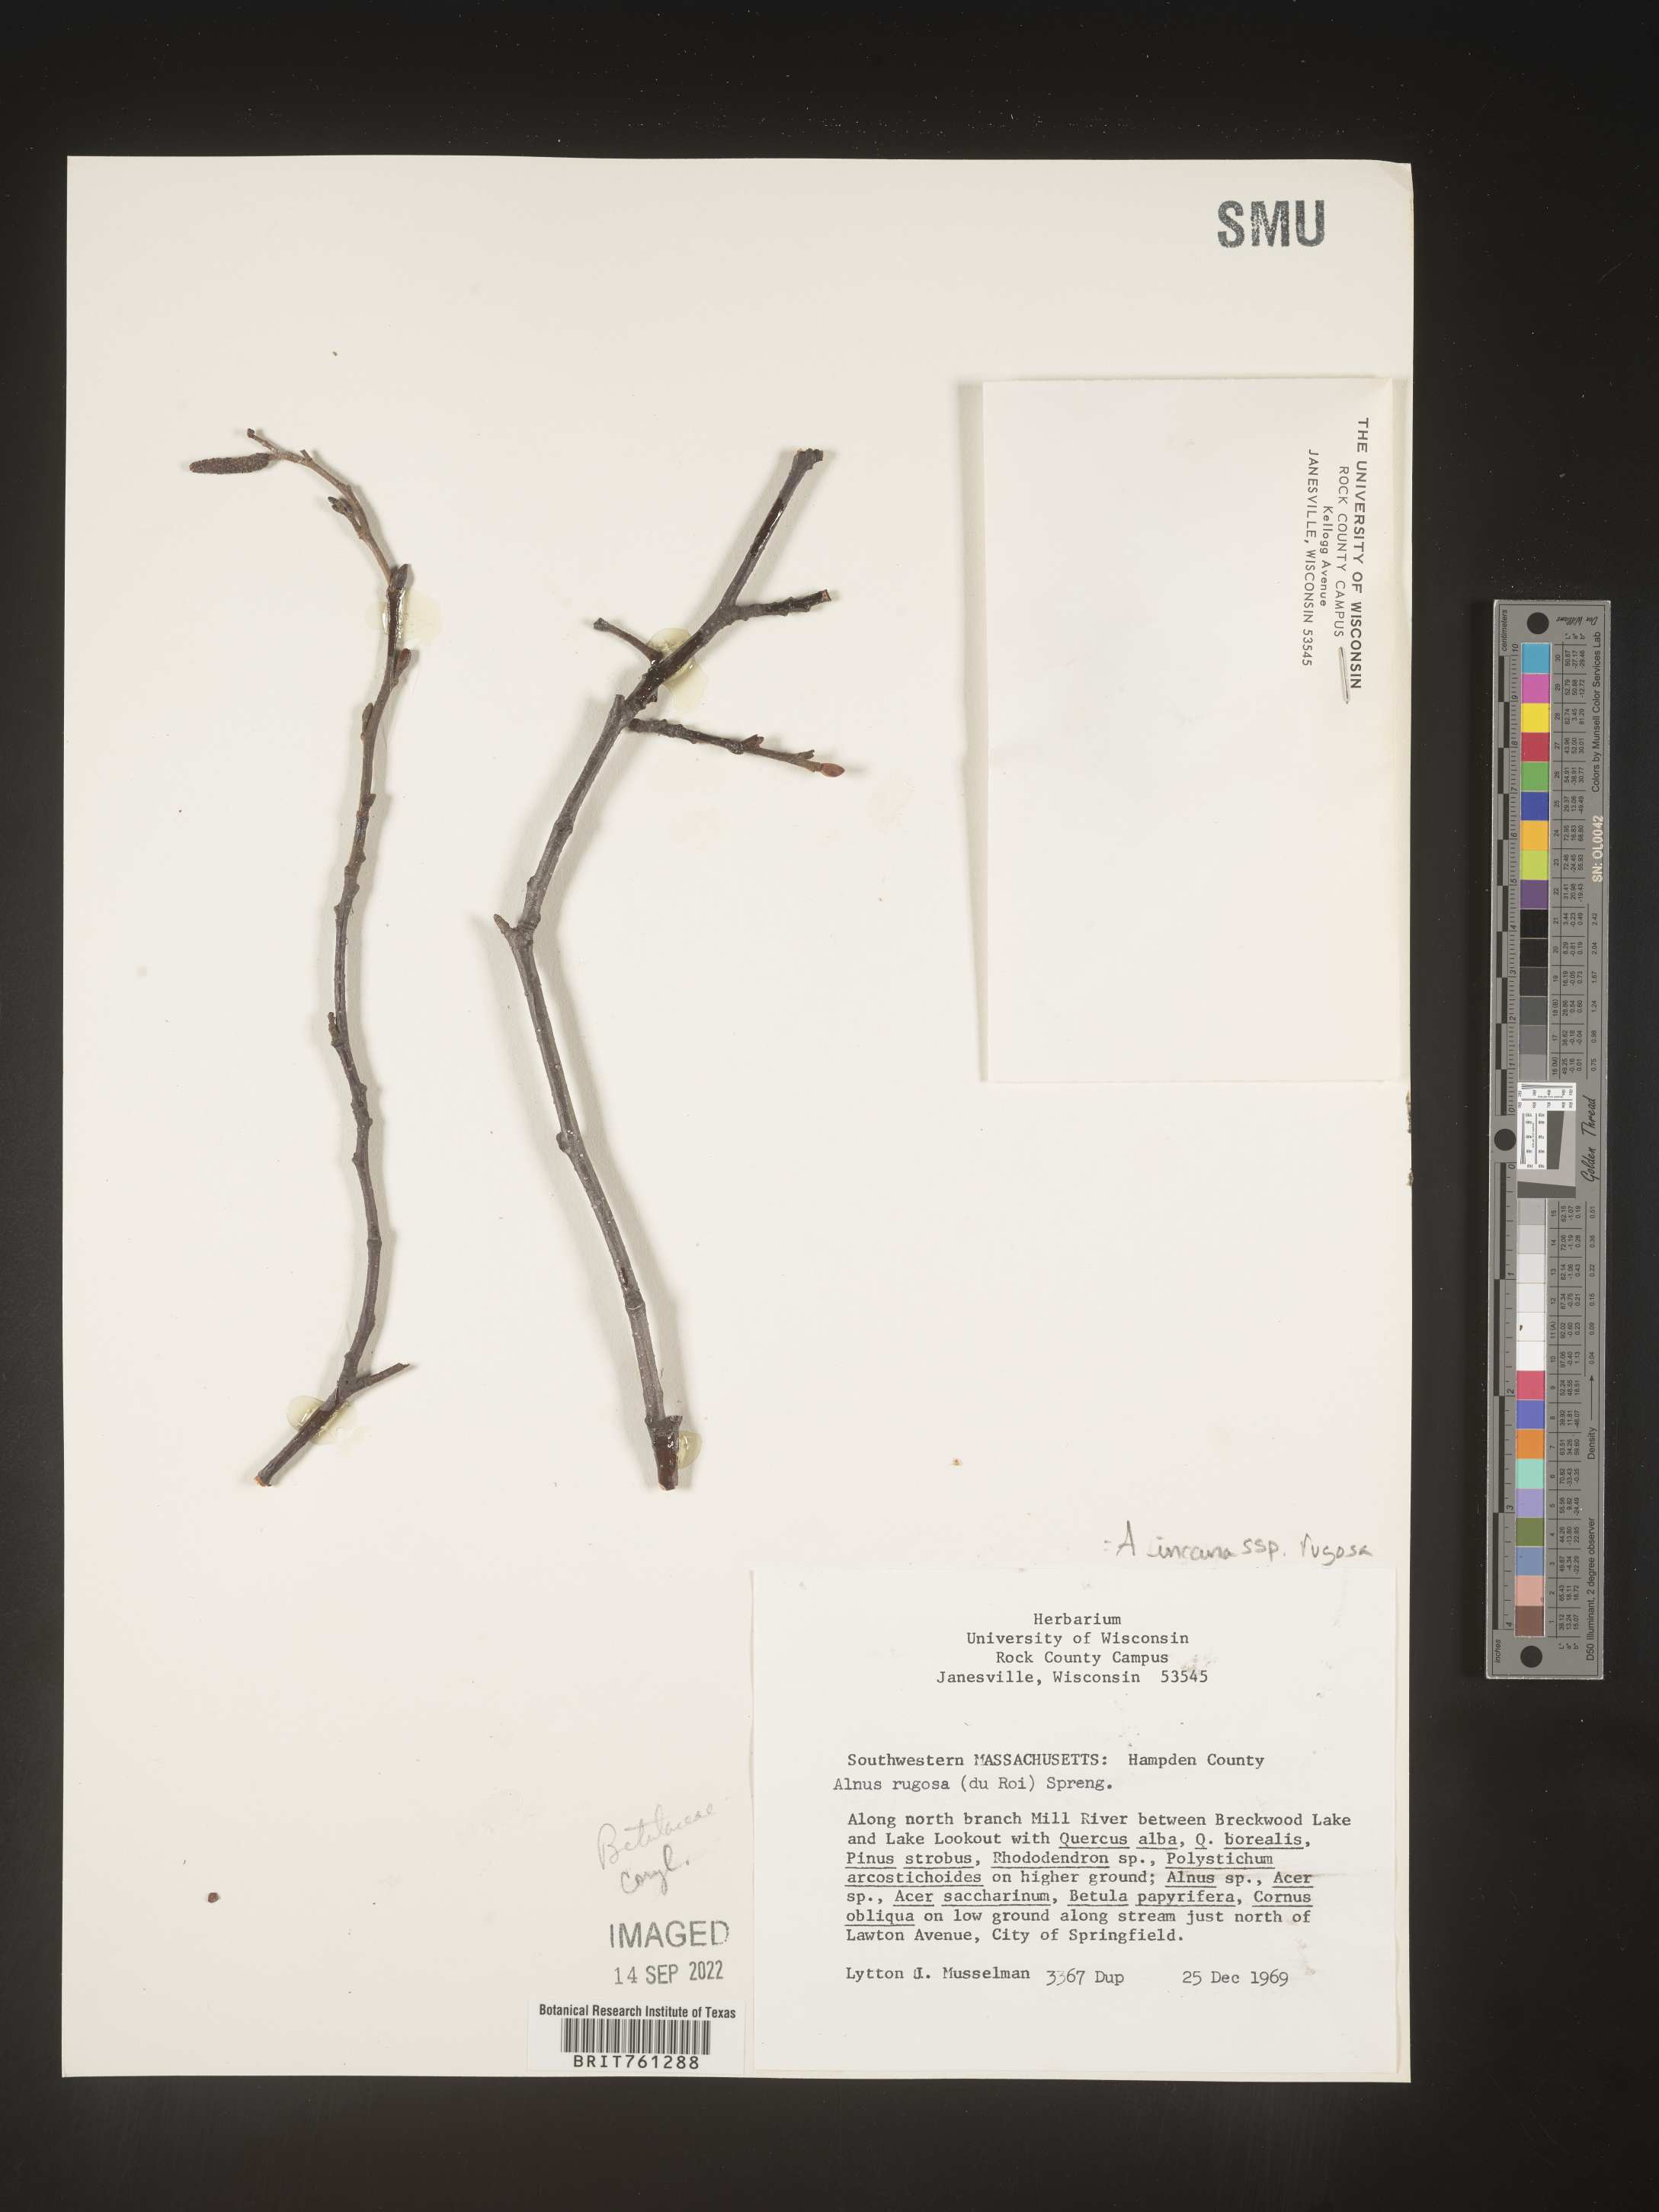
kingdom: Plantae
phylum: Tracheophyta
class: Magnoliopsida
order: Fagales
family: Betulaceae
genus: Alnus
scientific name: Alnus incana
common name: Grey alder
